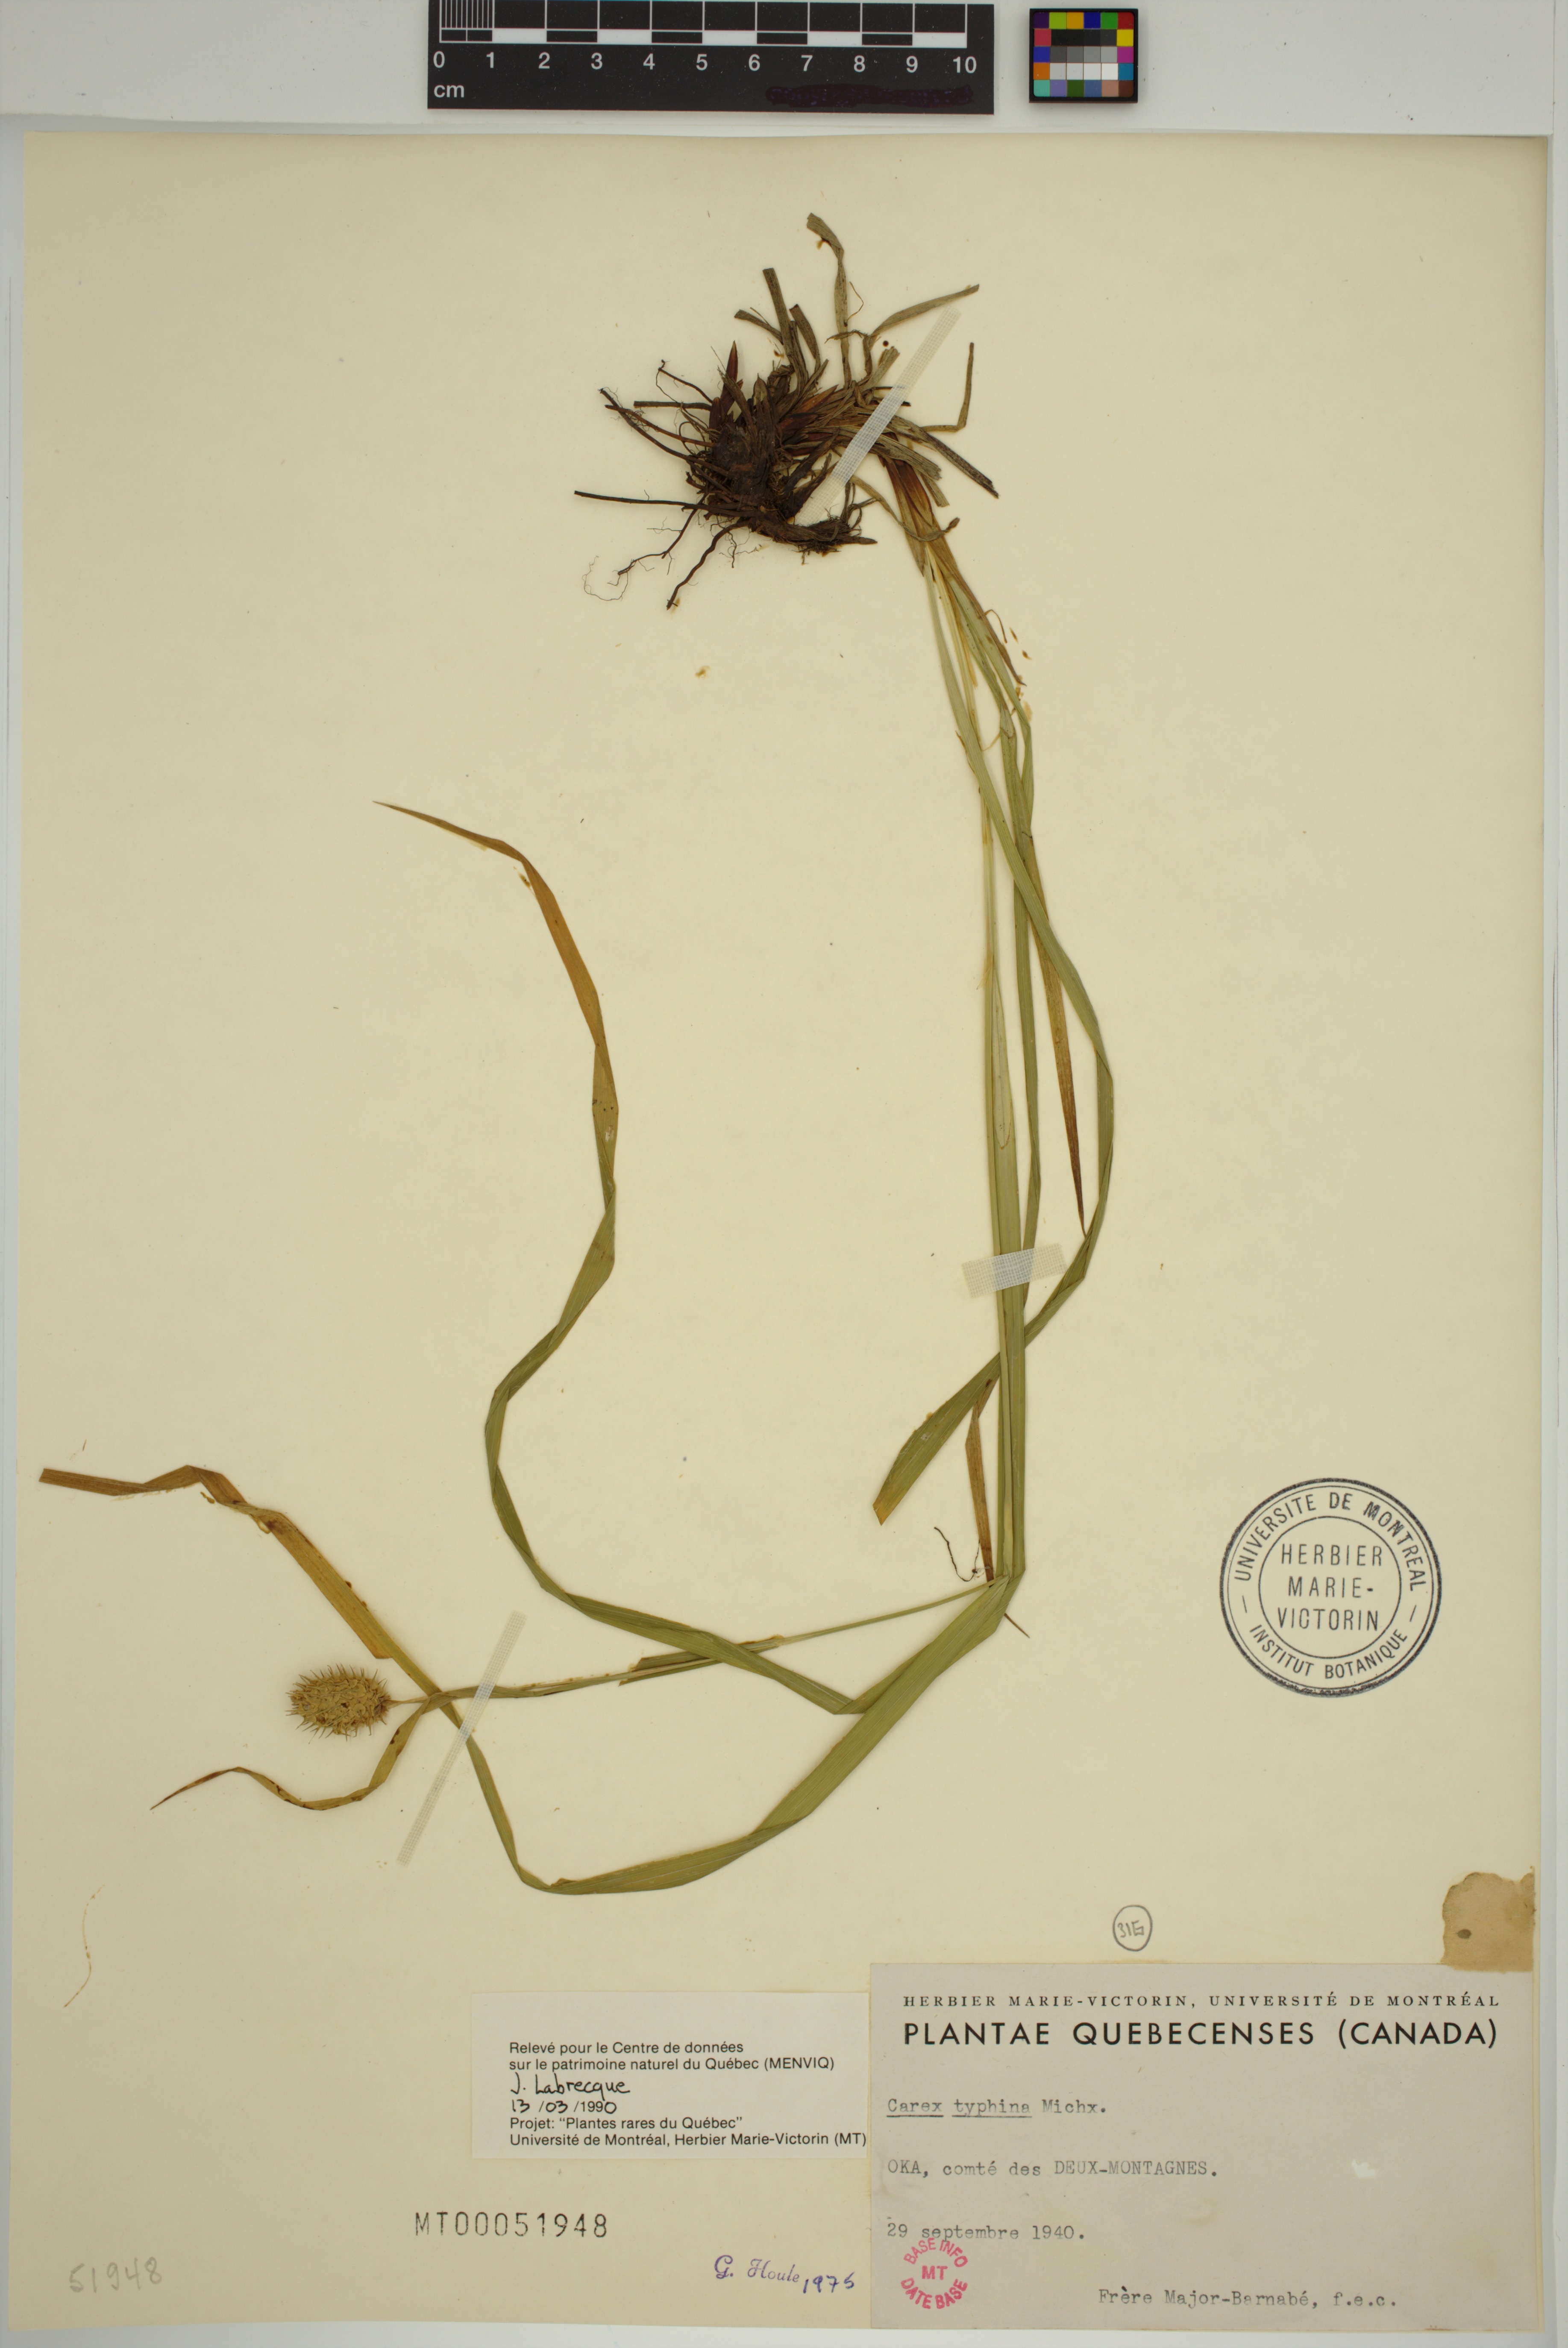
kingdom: Plantae
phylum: Tracheophyta
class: Liliopsida
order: Poales
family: Cyperaceae
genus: Carex
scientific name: Carex typhina
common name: Cattail sedge
